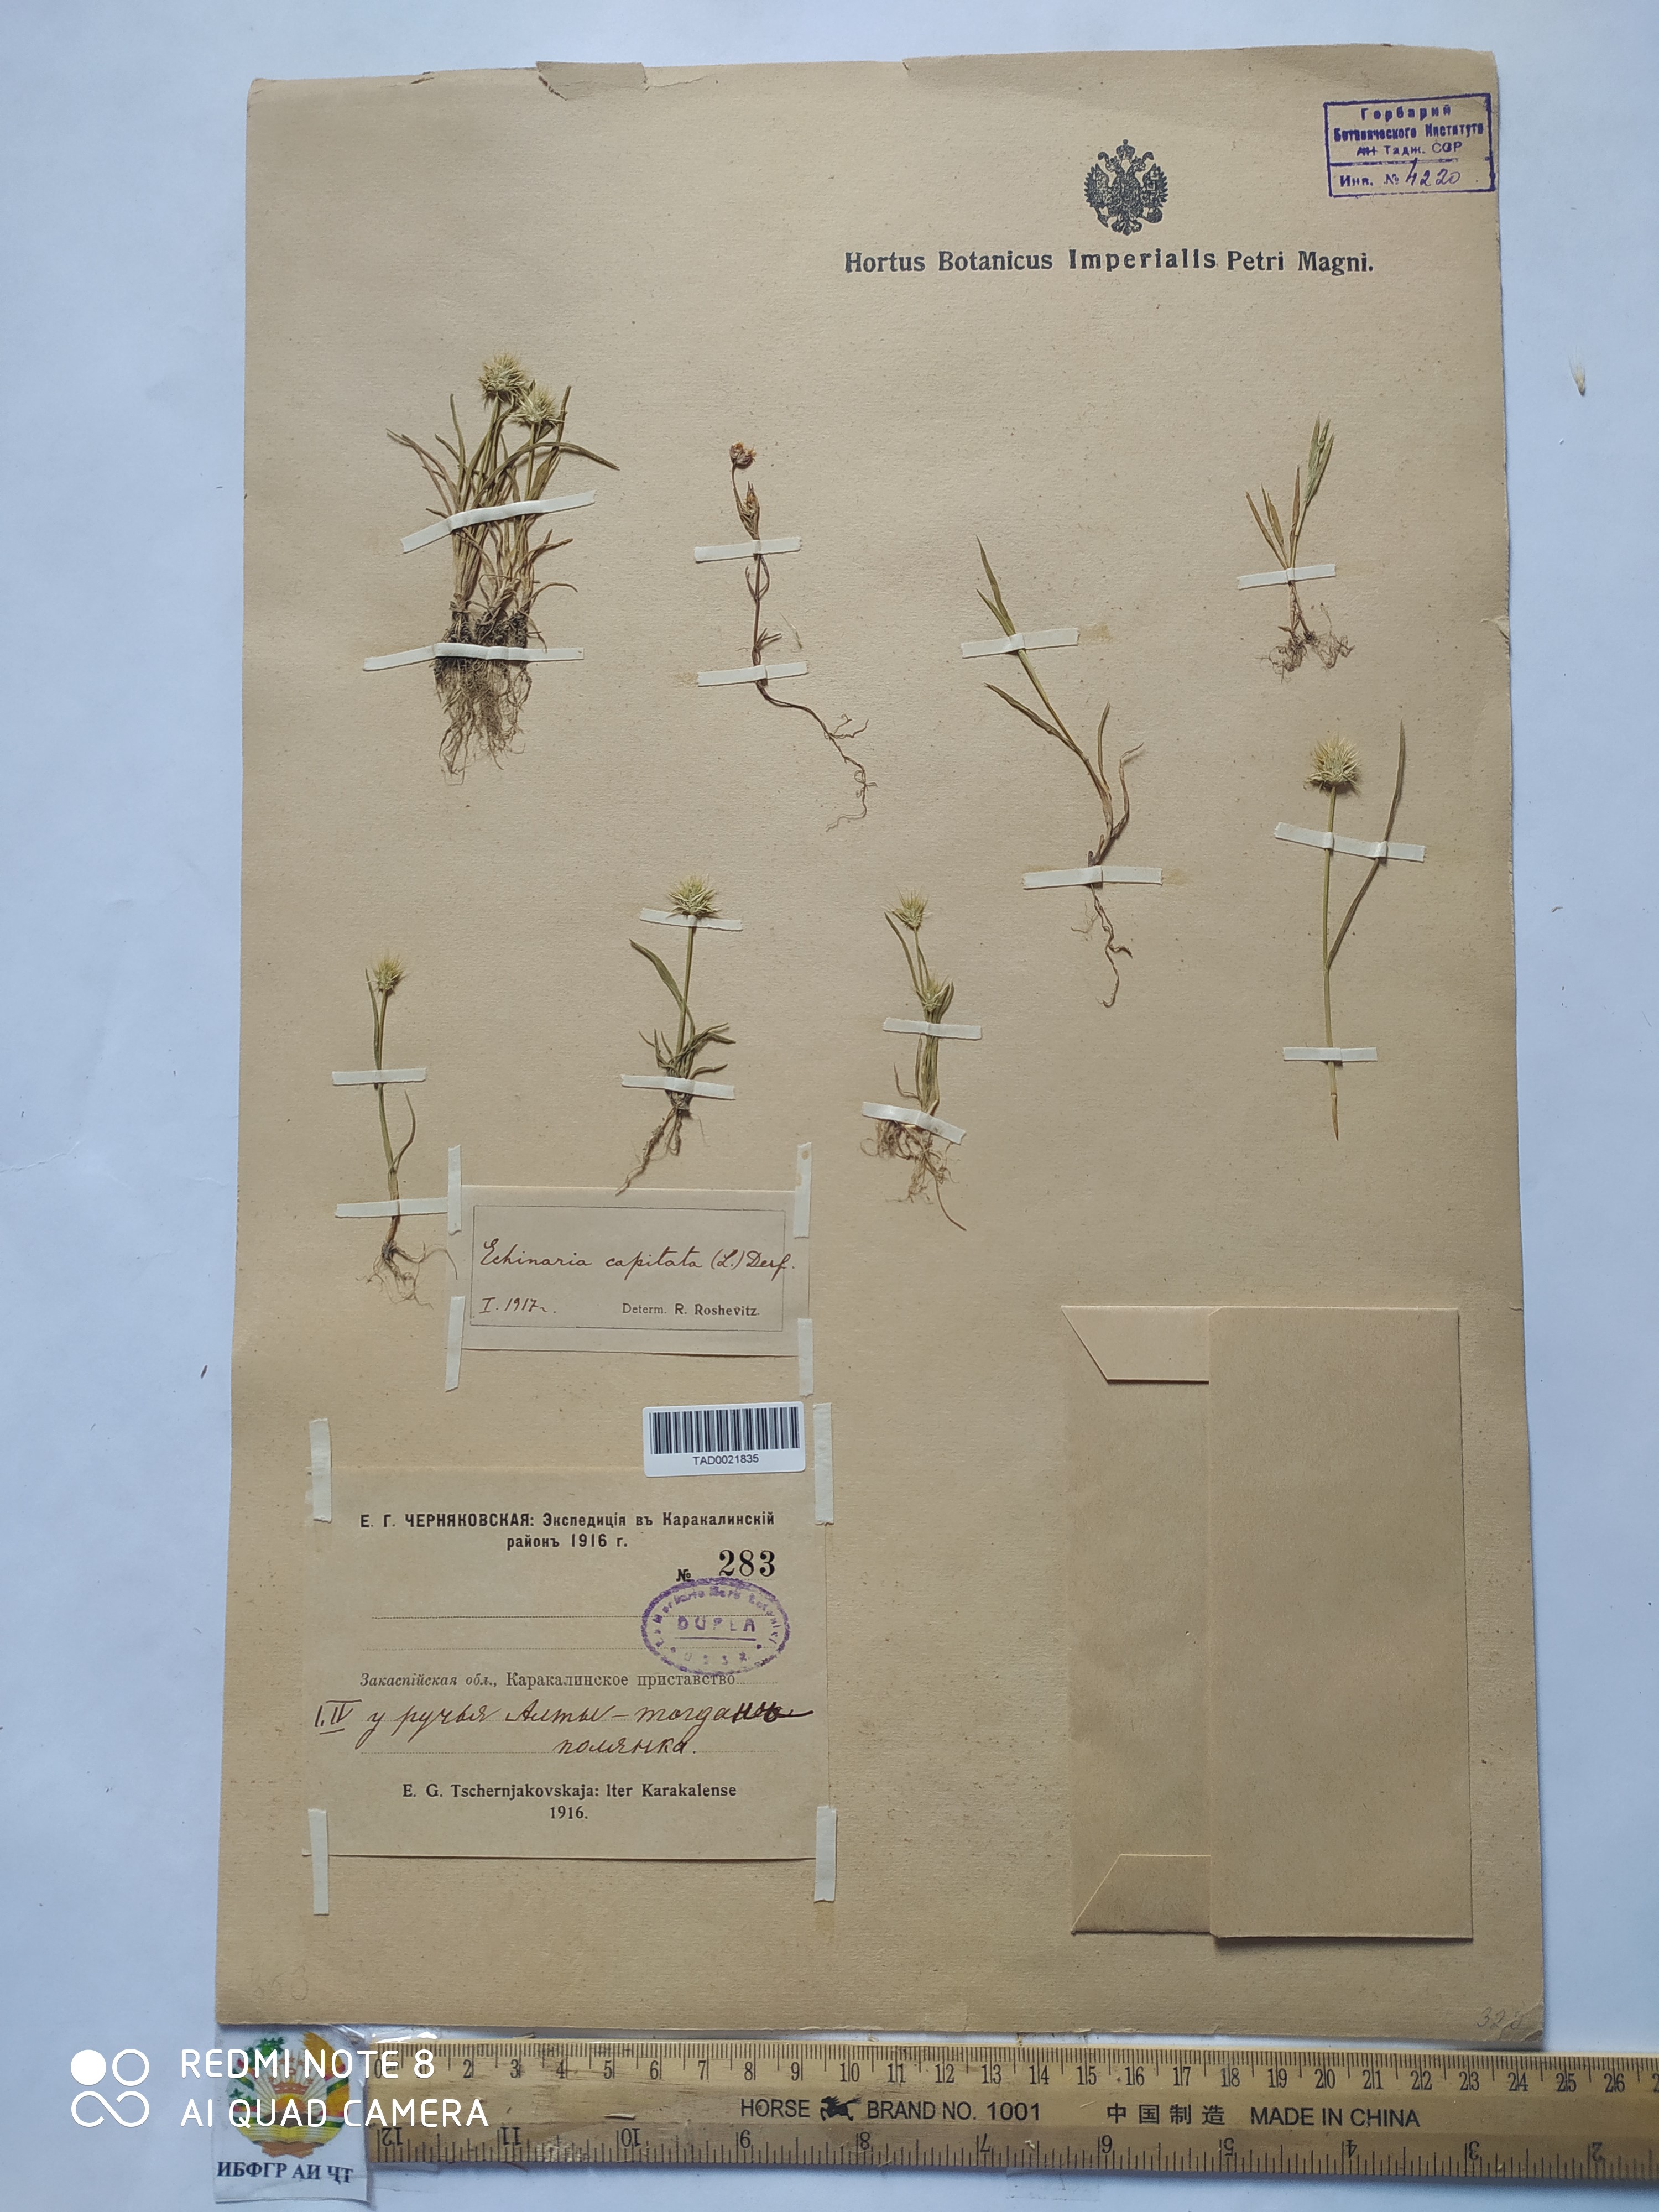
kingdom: Plantae
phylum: Tracheophyta
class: Liliopsida
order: Poales
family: Poaceae
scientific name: Poaceae
